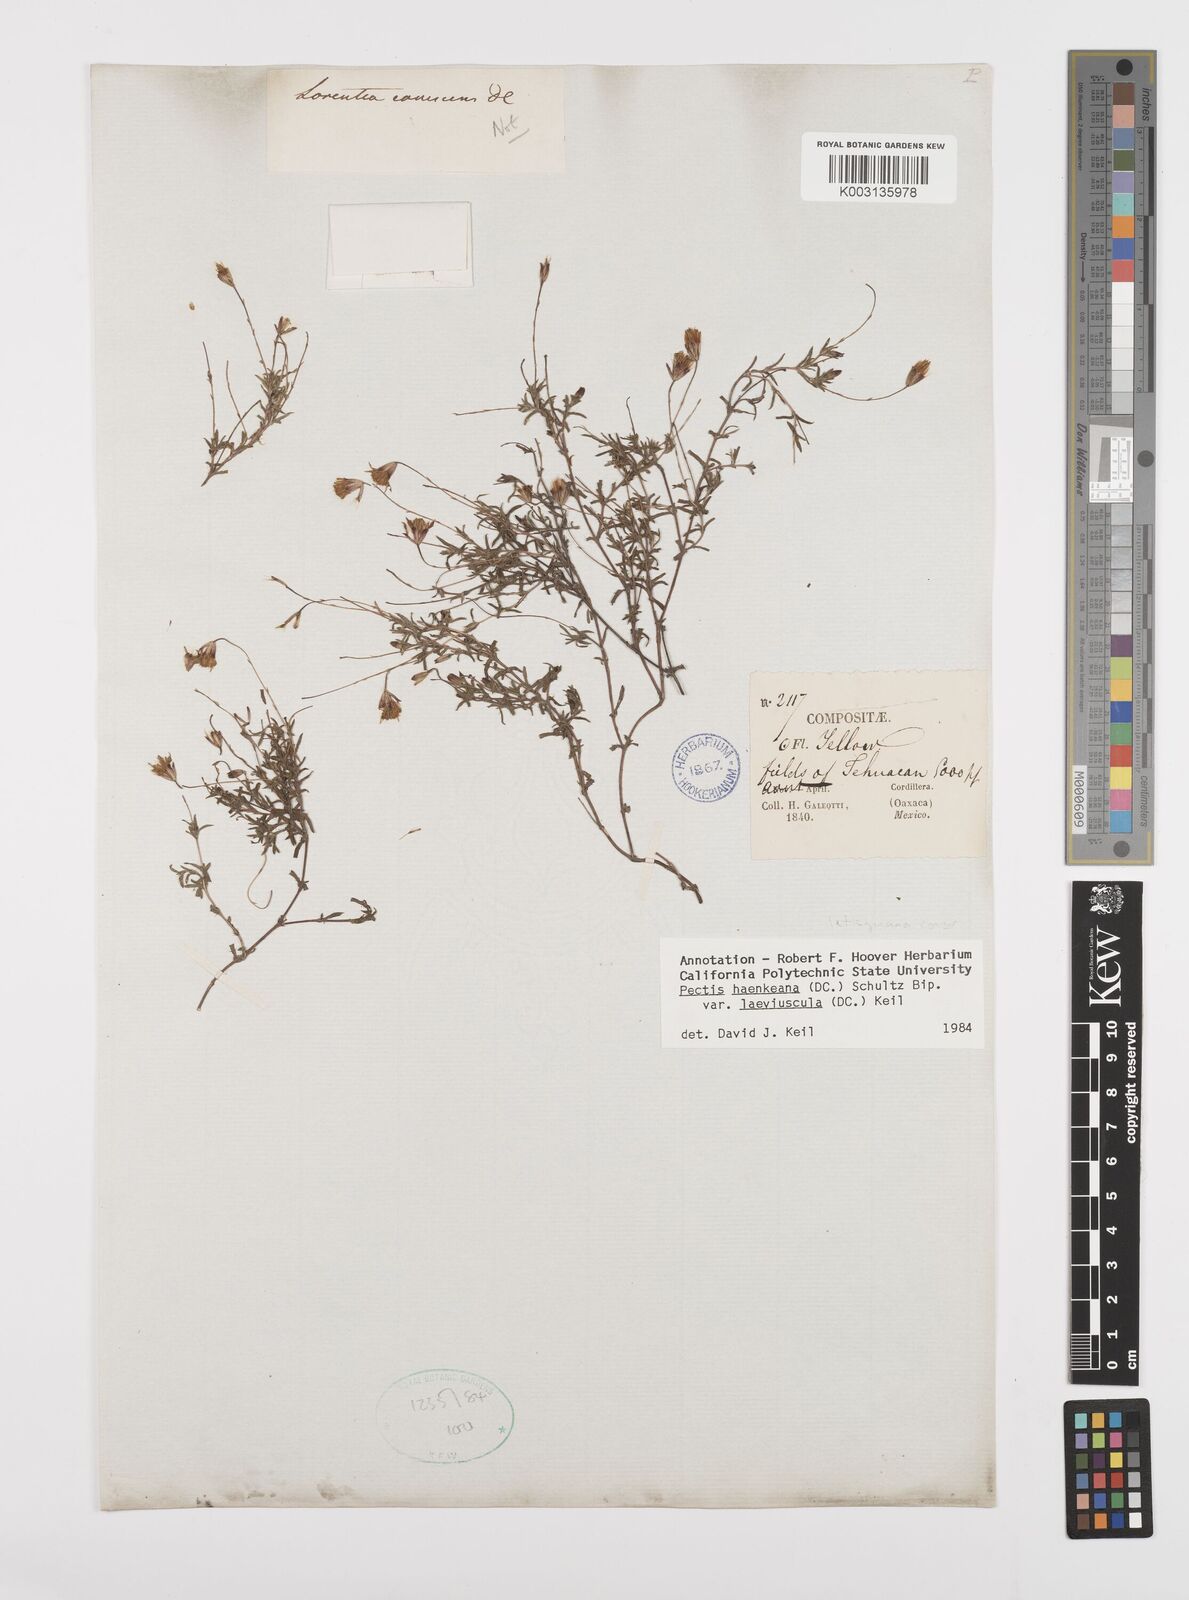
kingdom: Plantae
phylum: Tracheophyta
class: Magnoliopsida
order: Asterales
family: Asteraceae
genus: Pectis
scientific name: Pectis haenkeana
